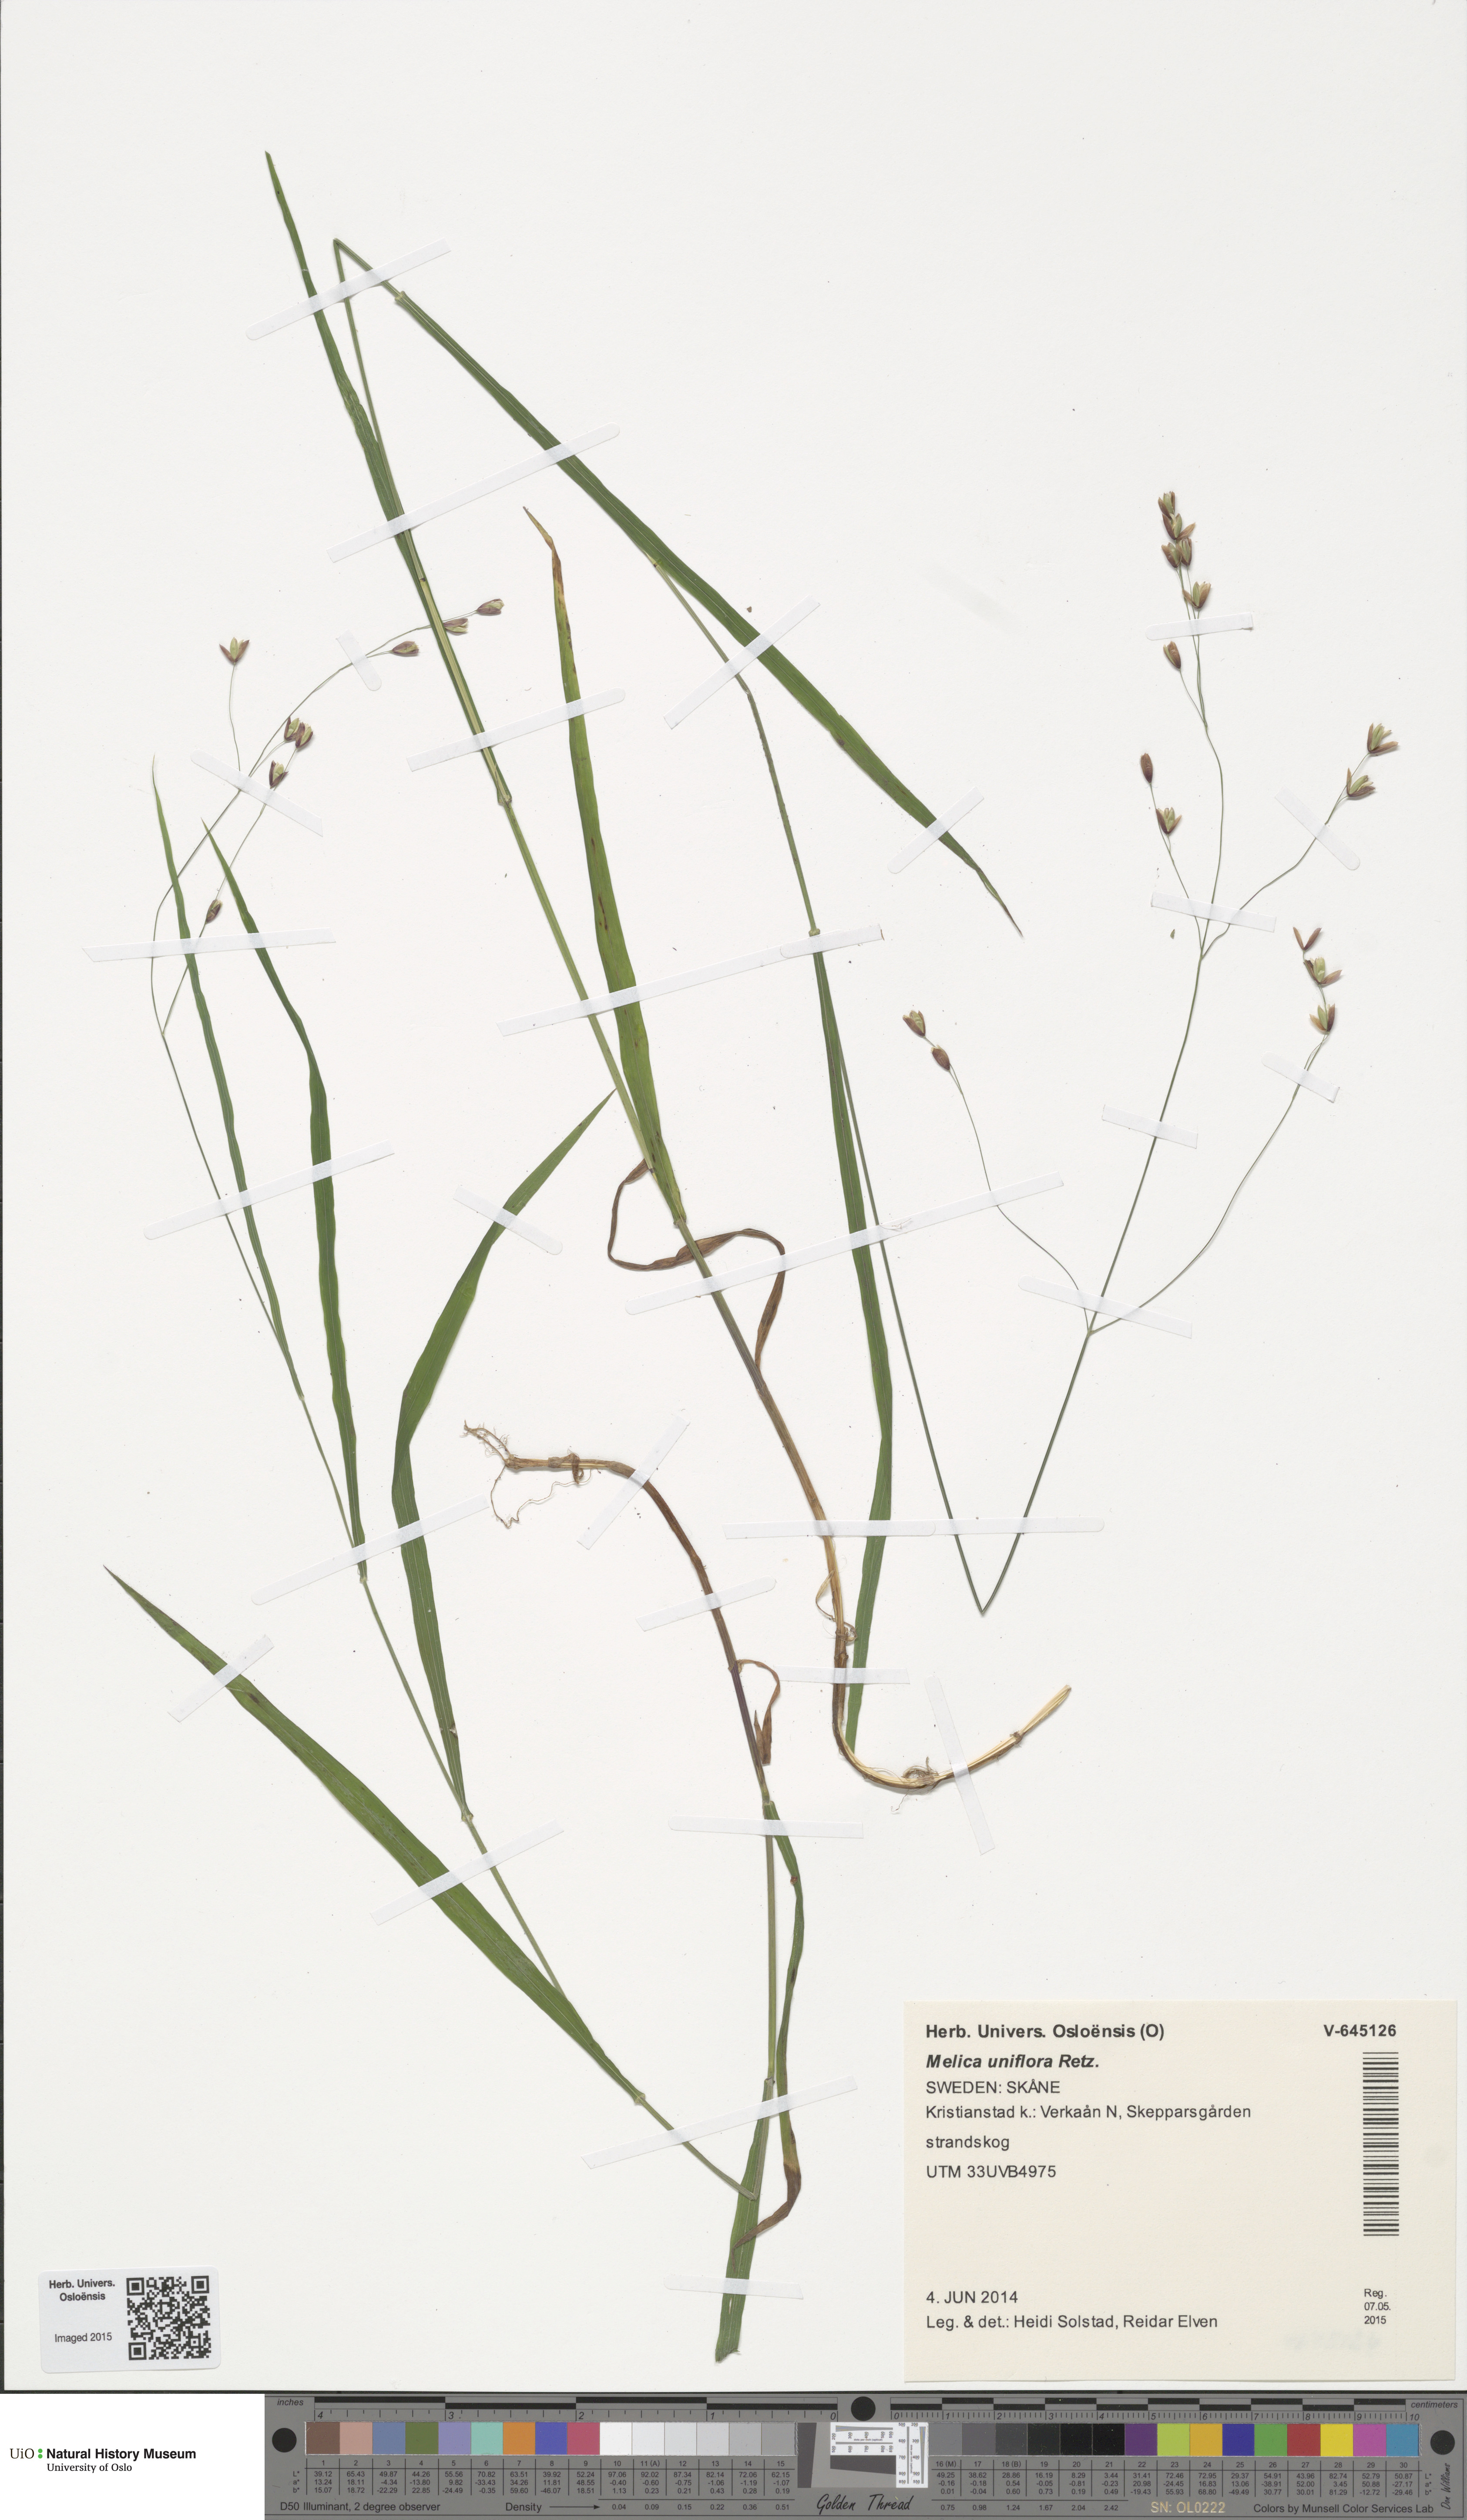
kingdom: Plantae
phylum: Tracheophyta
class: Liliopsida
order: Poales
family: Poaceae
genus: Melica
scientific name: Melica uniflora
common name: Wood melick
